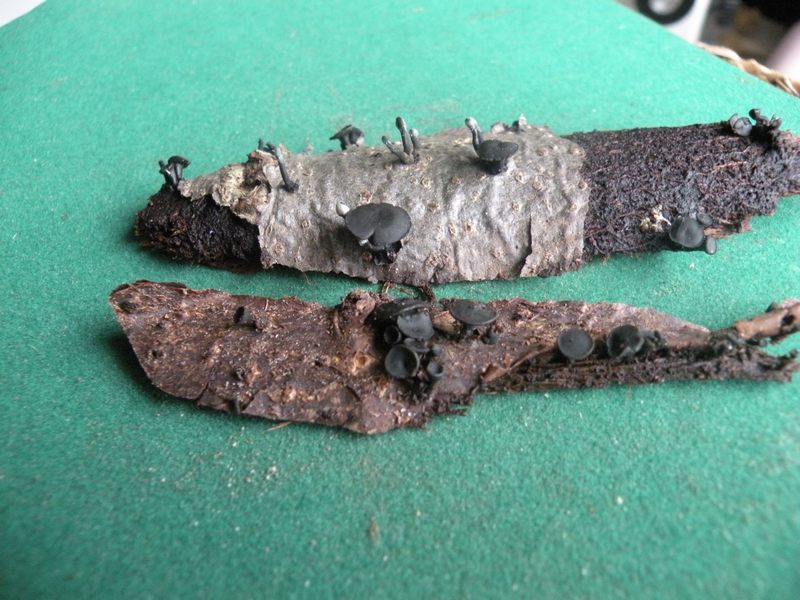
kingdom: Fungi
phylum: Ascomycota
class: Leotiomycetes
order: Helotiales
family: Bulgariaceae
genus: Holwaya
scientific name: Holwaya mucida
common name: lindeskive
